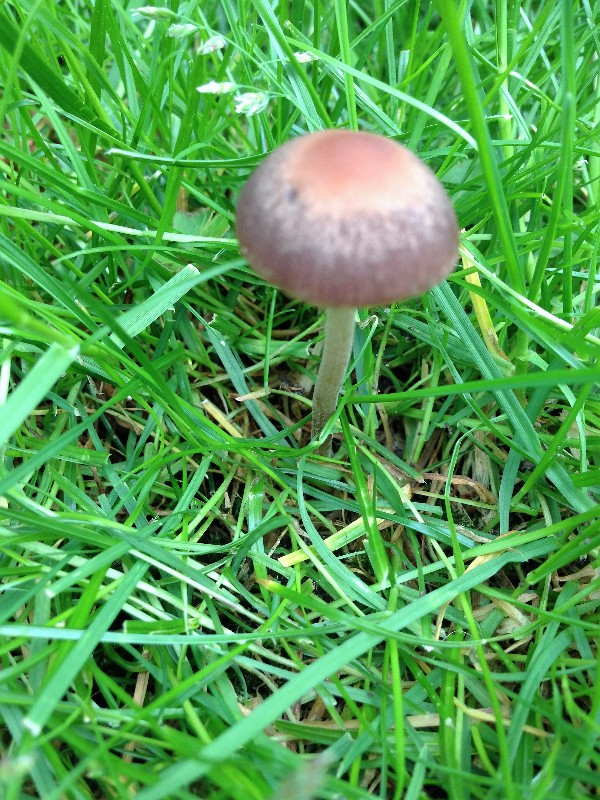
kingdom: Fungi
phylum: Basidiomycota
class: Agaricomycetes
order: Agaricales
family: Bolbitiaceae
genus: Panaeolina
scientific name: Panaeolina foenisecii
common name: høslætsvamp
